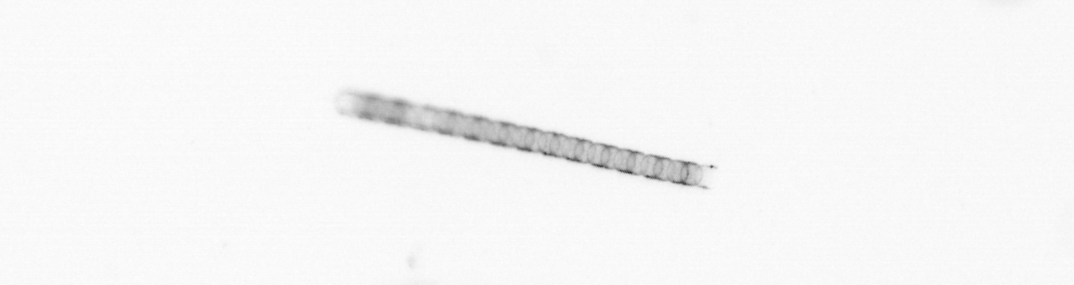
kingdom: Chromista
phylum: Ochrophyta
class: Bacillariophyceae
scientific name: Bacillariophyceae
